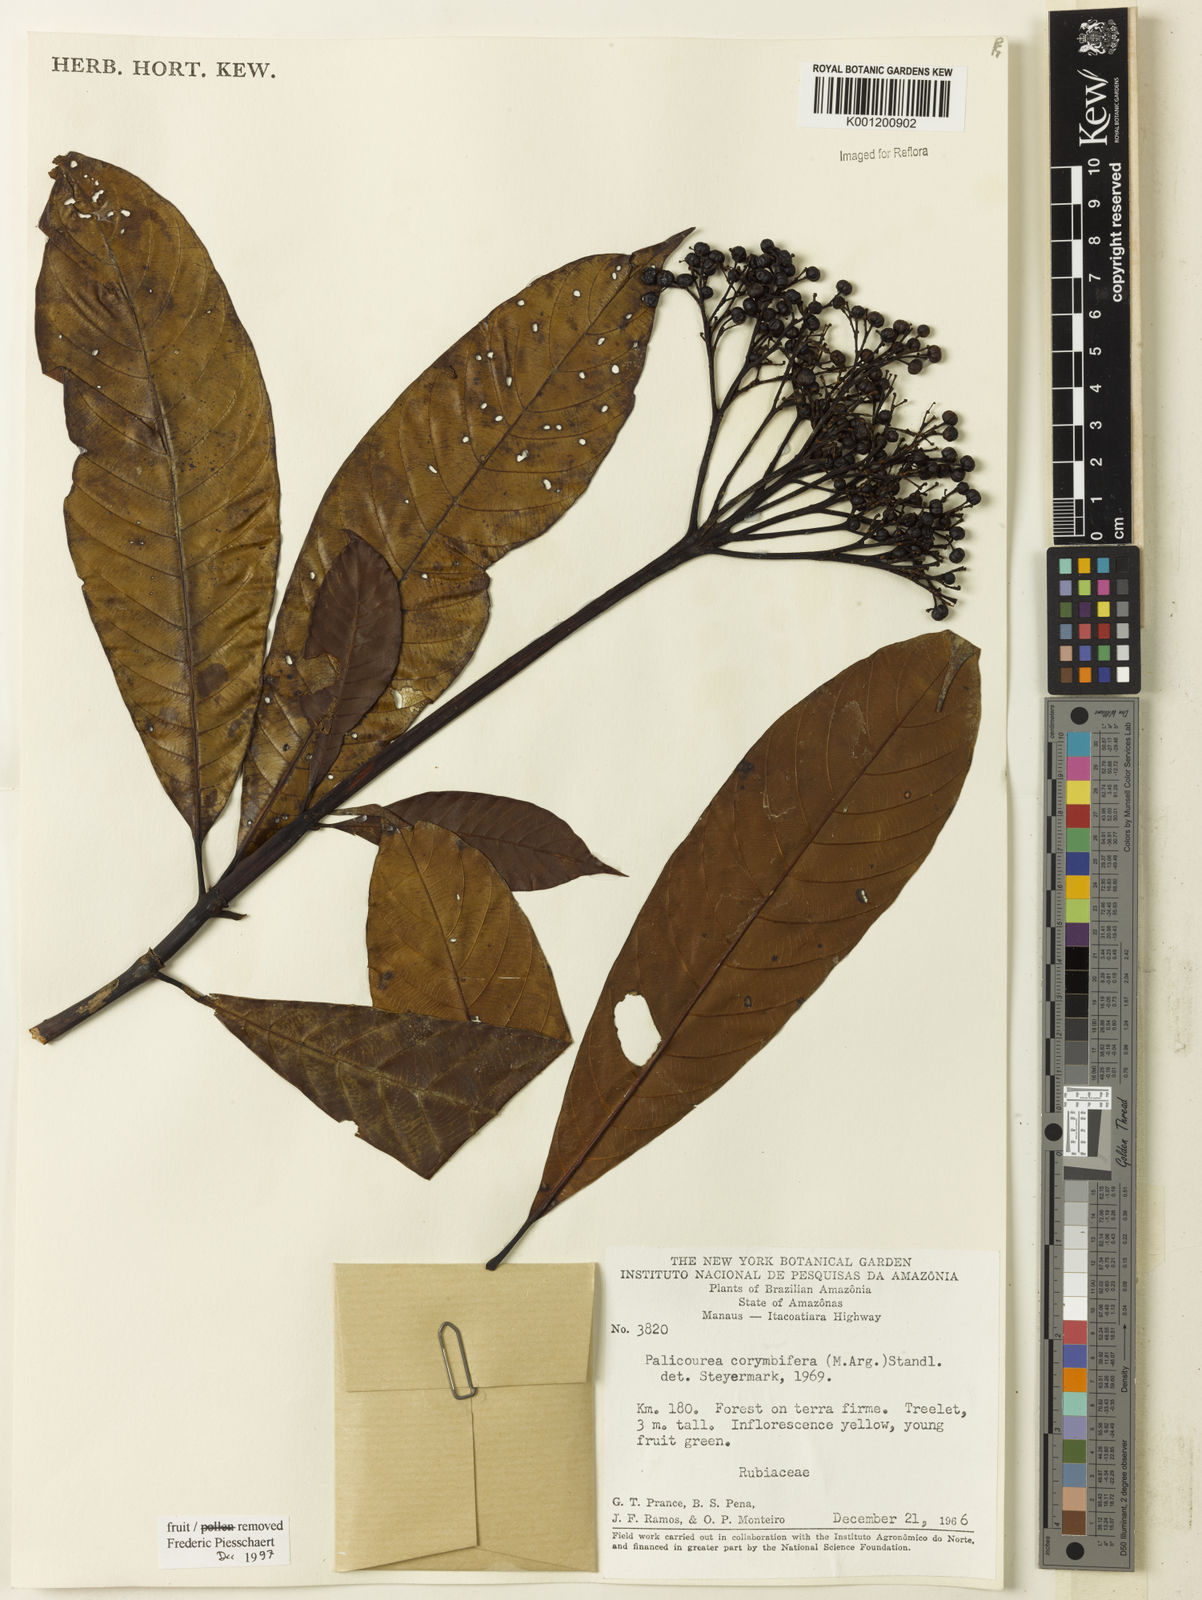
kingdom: Plantae
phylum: Tracheophyta
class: Magnoliopsida
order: Gentianales
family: Rubiaceae
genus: Palicourea
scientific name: Palicourea
